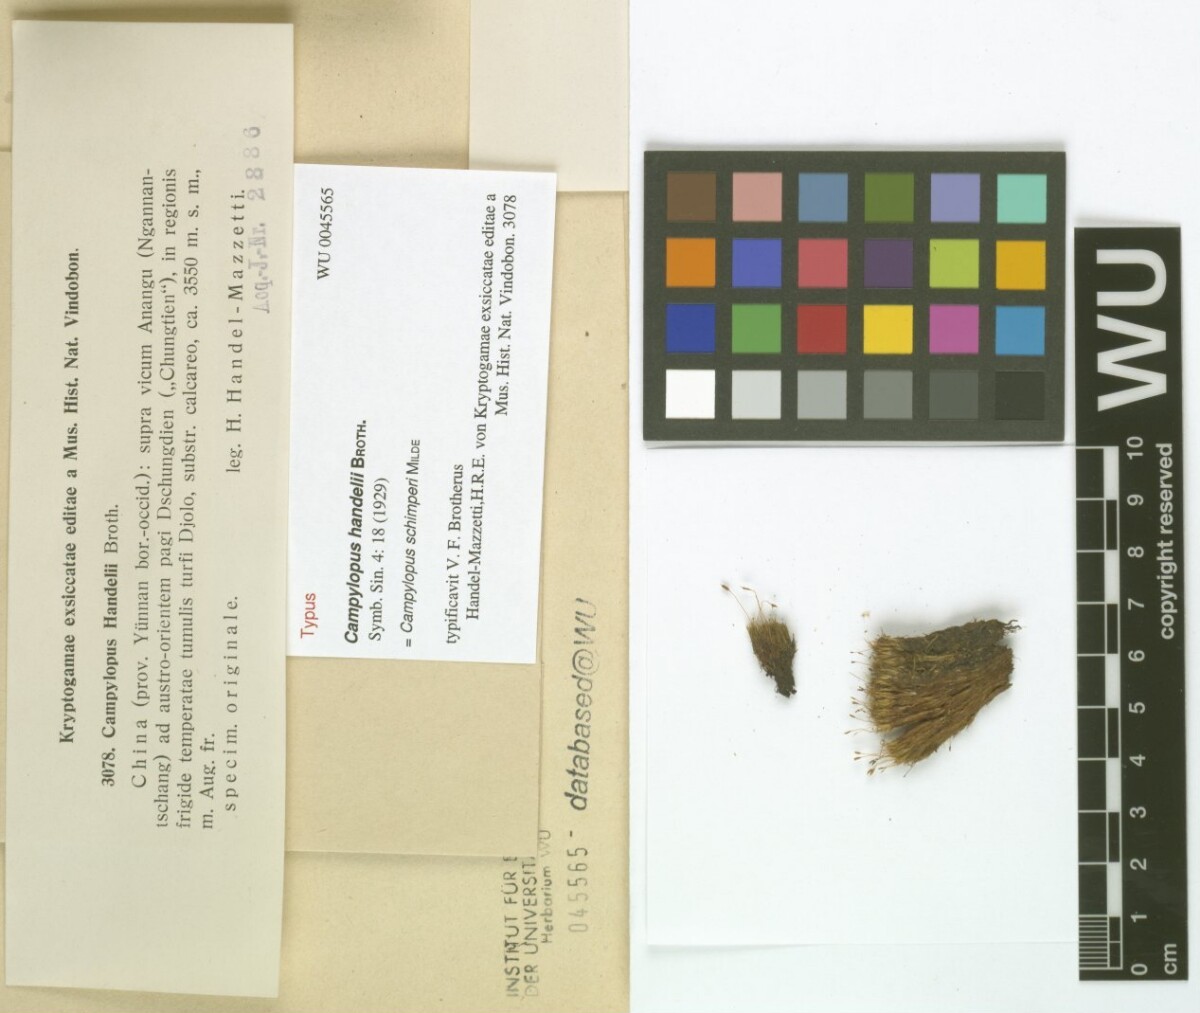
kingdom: Plantae
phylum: Bryophyta
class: Bryopsida
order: Dicranales
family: Leucobryaceae
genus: Campylopus
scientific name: Campylopus schimperi
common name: Schimper's swan-neck moss
